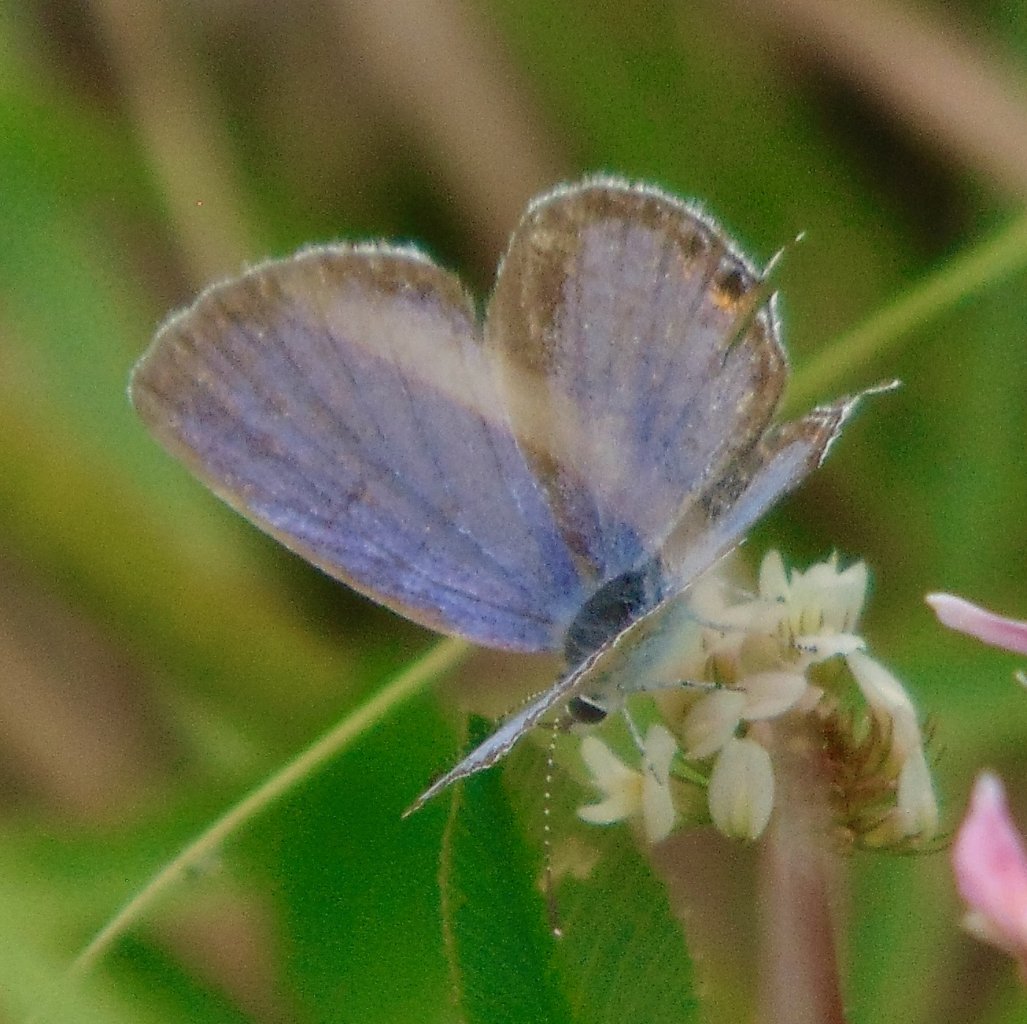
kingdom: Animalia
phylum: Arthropoda
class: Insecta
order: Lepidoptera
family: Lycaenidae
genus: Elkalyce
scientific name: Elkalyce comyntas
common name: Eastern Tailed-Blue
